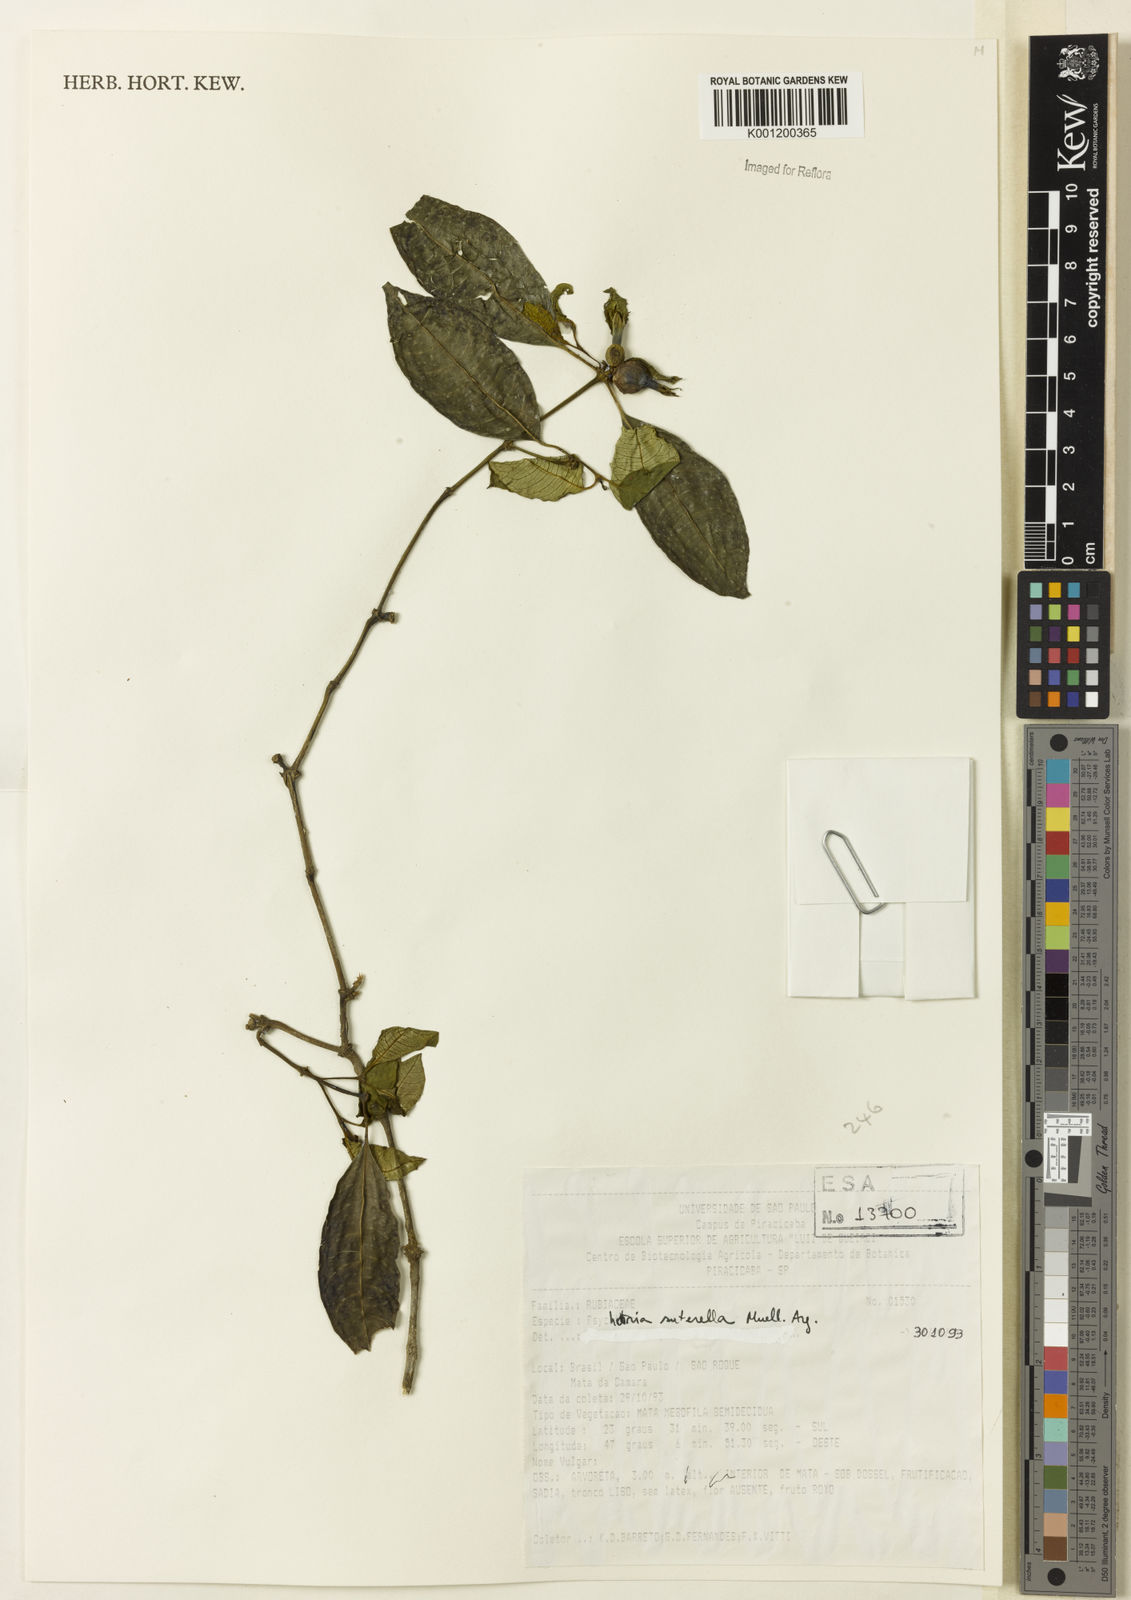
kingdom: Plantae
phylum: Tracheophyta
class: Magnoliopsida
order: Gentianales
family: Rubiaceae
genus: Psychotria
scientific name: Psychotria
